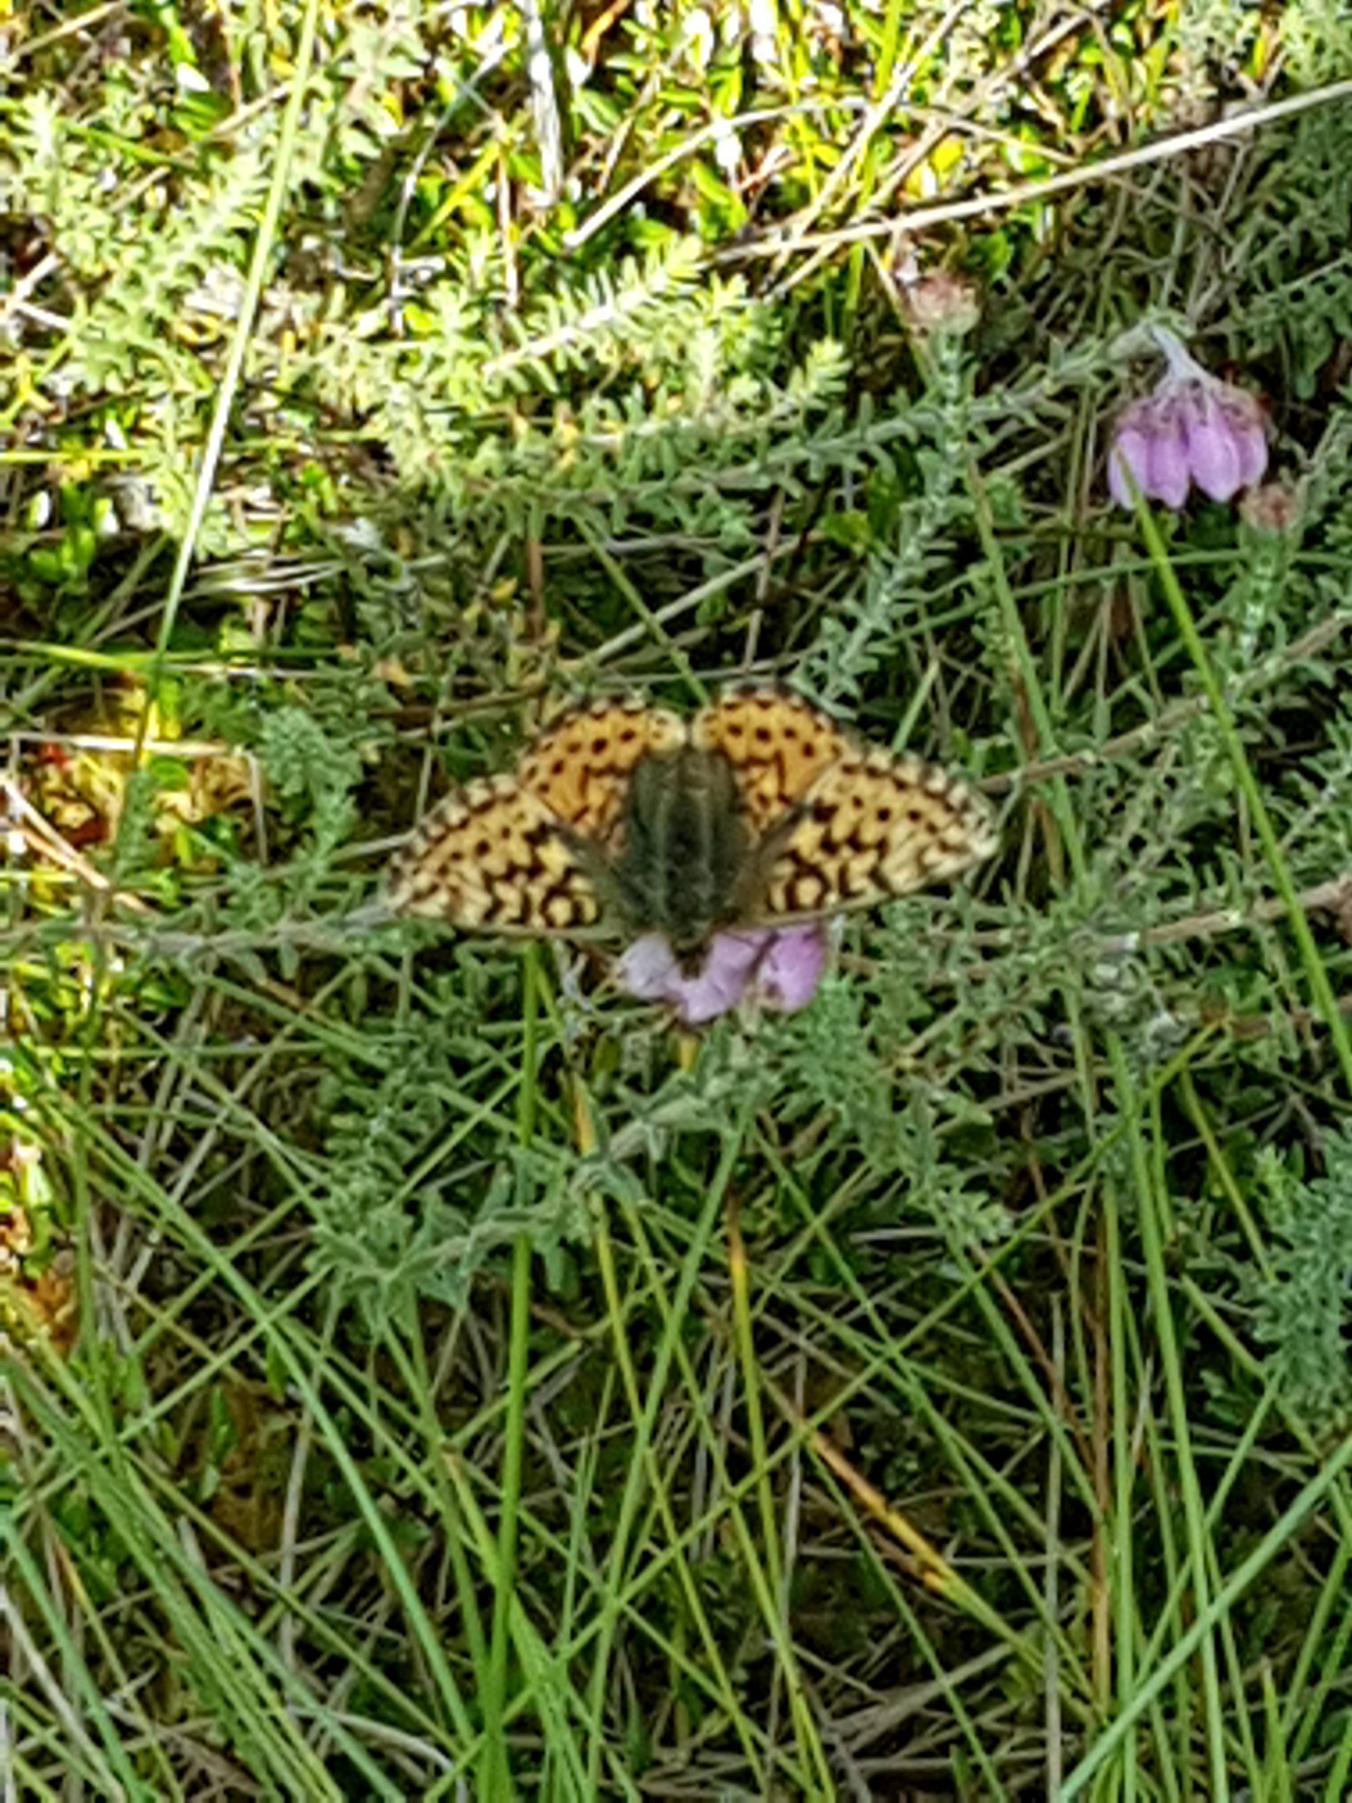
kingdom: Animalia
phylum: Arthropoda
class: Insecta
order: Lepidoptera
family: Nymphalidae
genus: Boloria
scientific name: Boloria aquilonaris
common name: Moseperlemorsommerfugl
